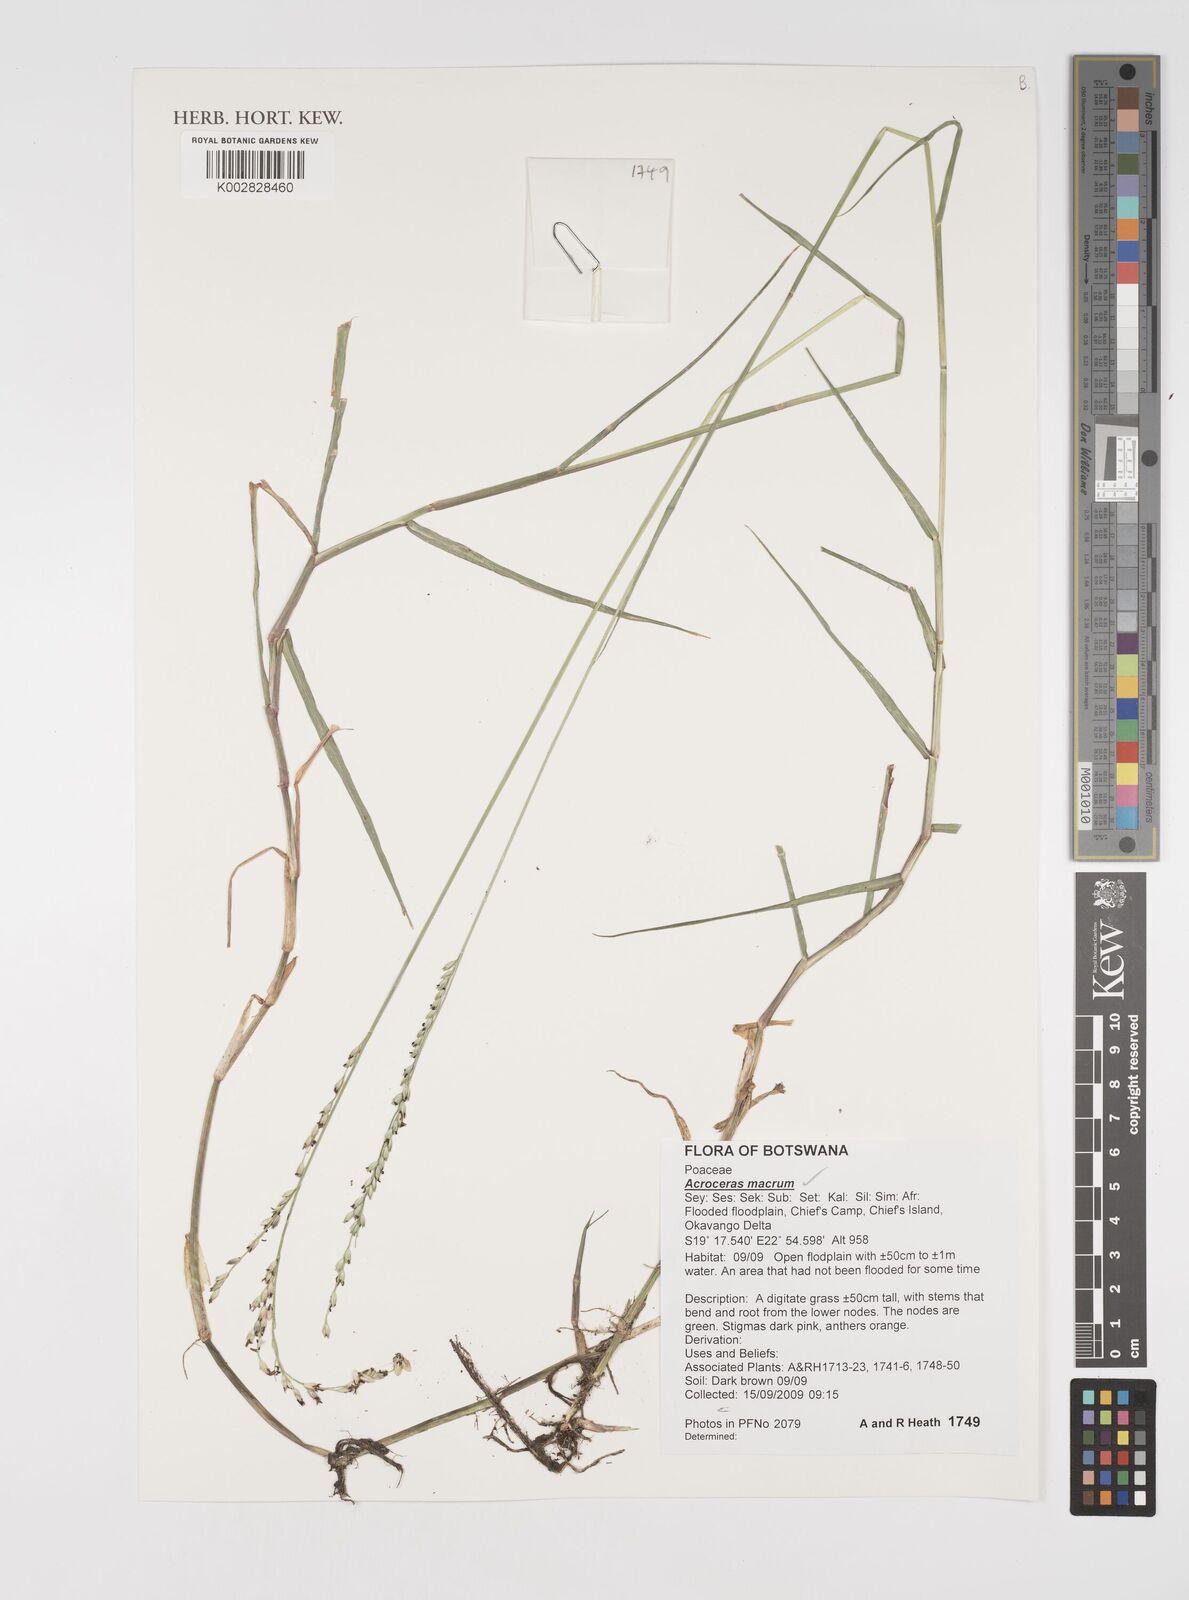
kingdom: Plantae
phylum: Tracheophyta
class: Liliopsida
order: Poales
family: Poaceae
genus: Acroceras
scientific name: Acroceras macrum
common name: Nyl grass
